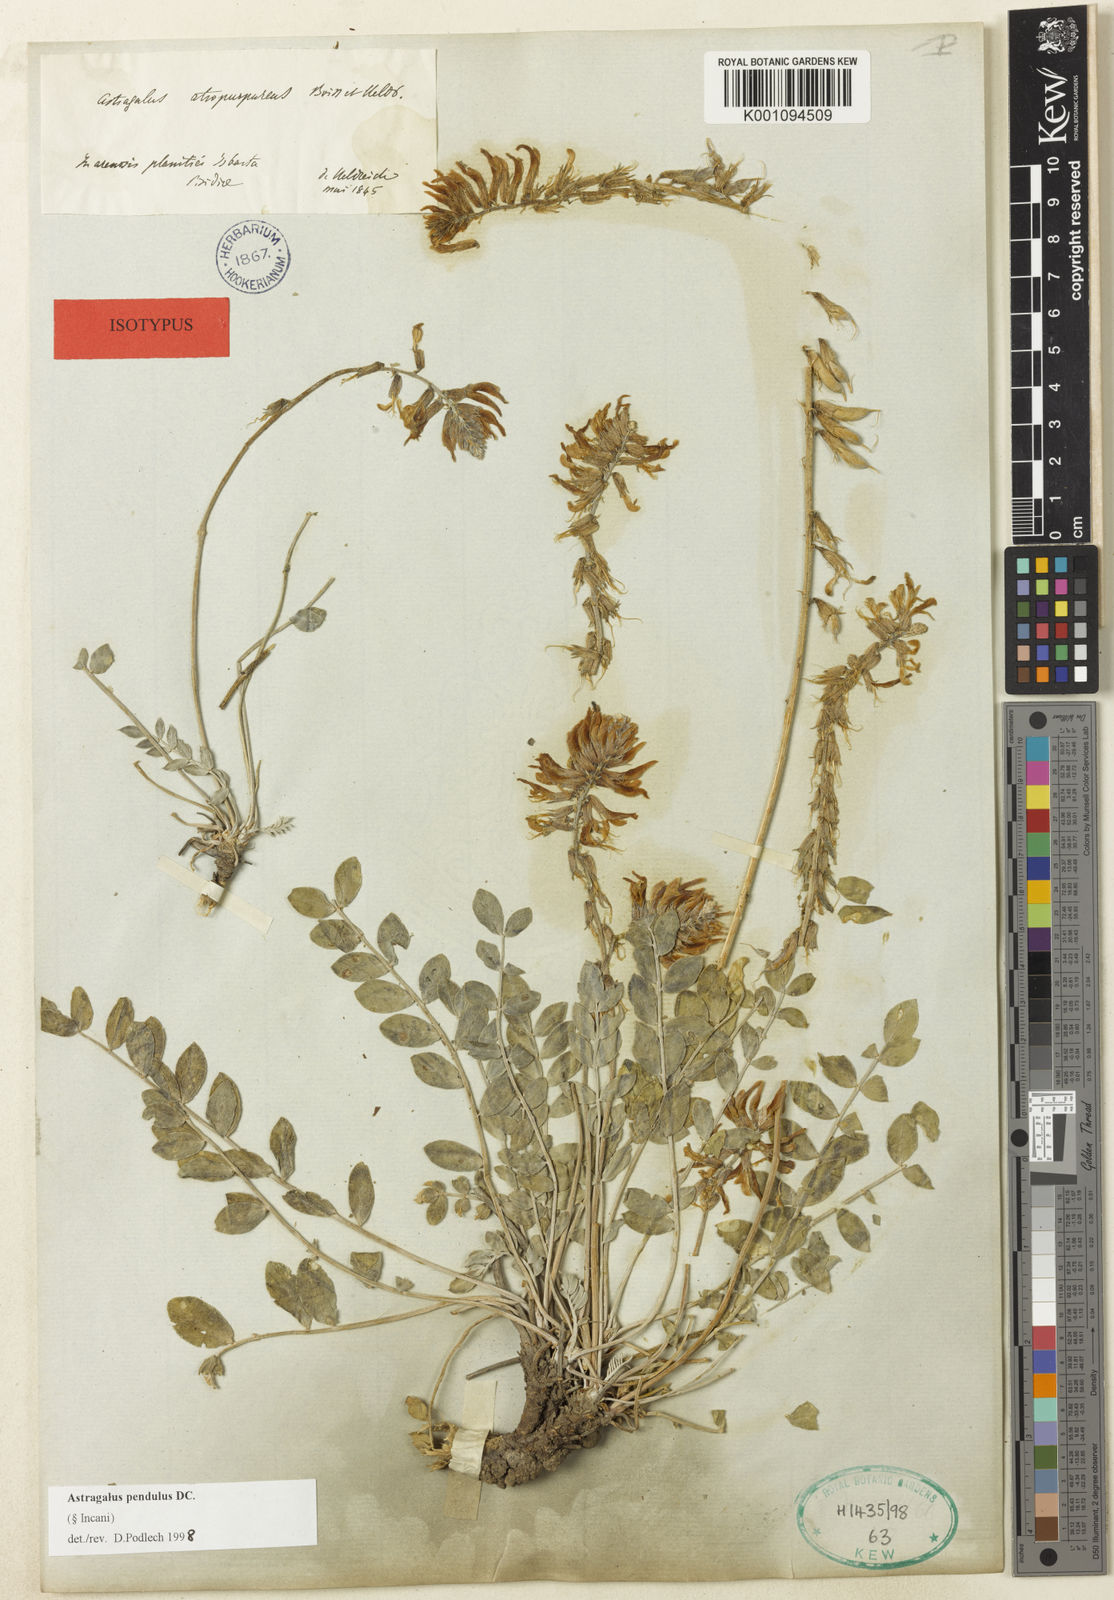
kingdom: Plantae
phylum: Tracheophyta
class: Magnoliopsida
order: Fabales
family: Fabaceae
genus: Astragalus
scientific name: Astragalus
